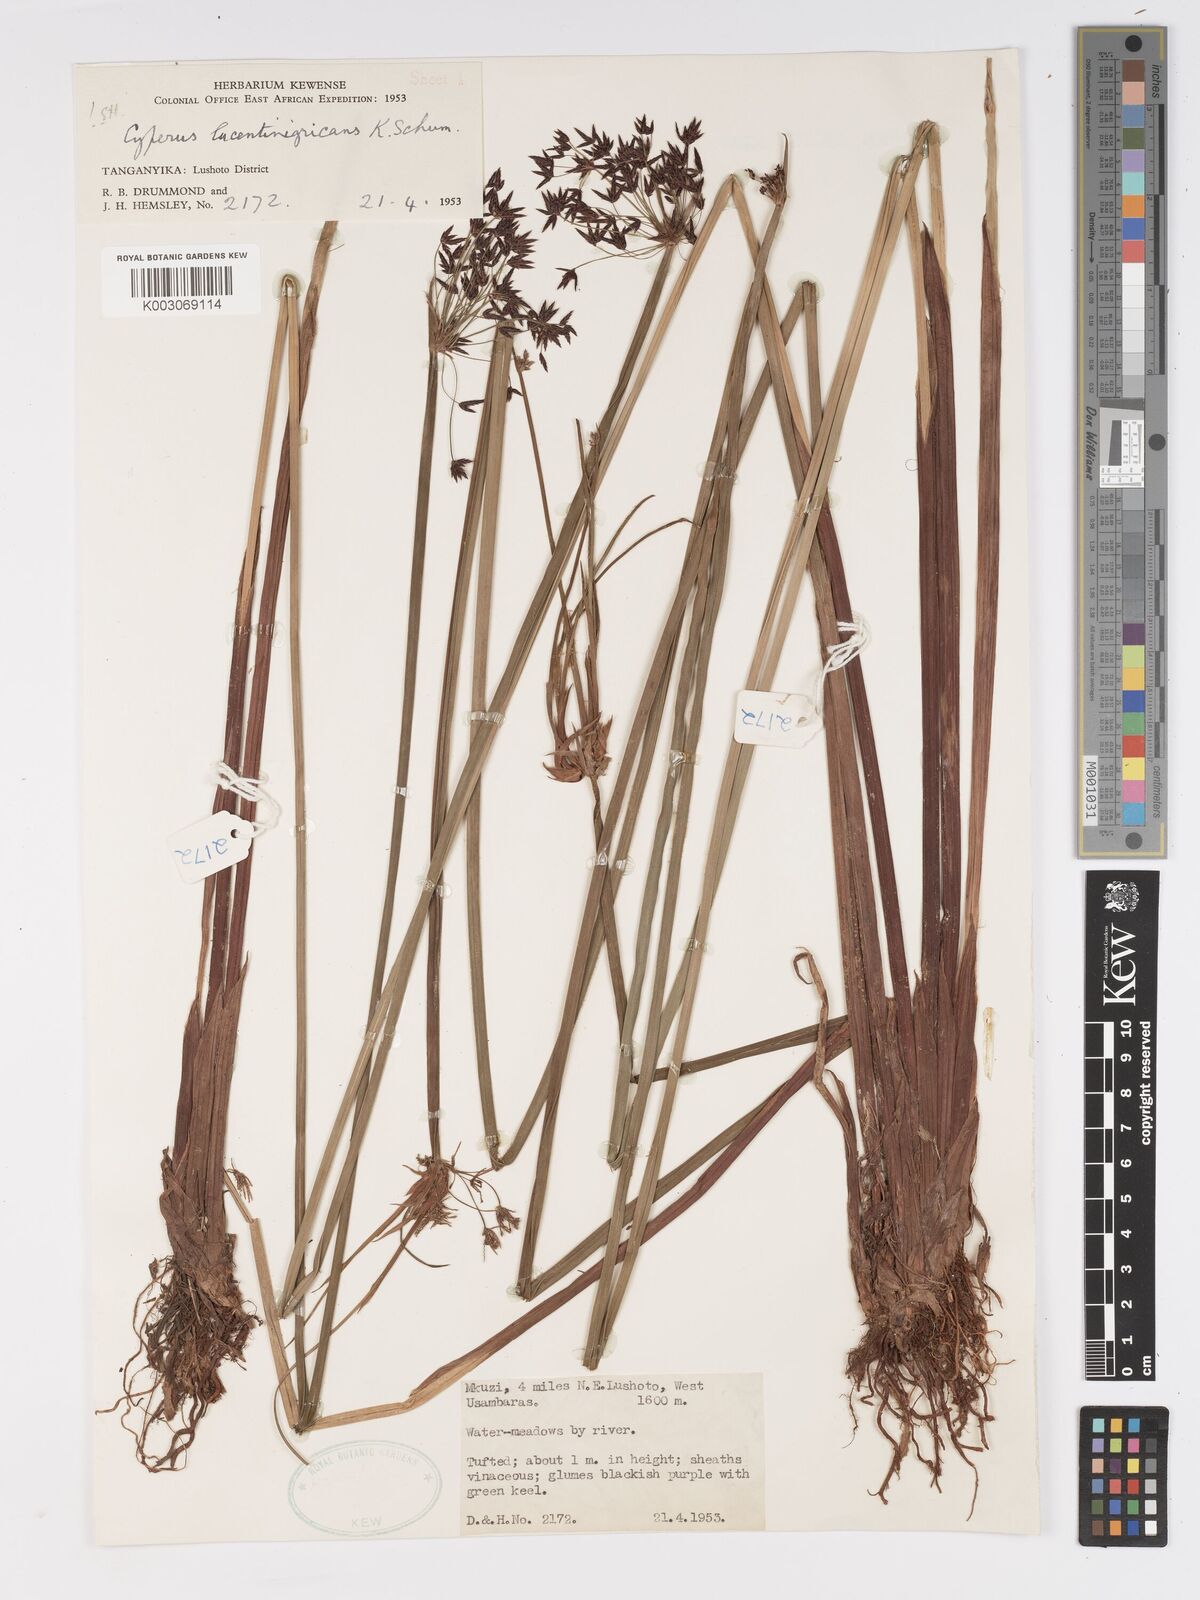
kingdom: Plantae
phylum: Tracheophyta
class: Liliopsida
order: Poales
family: Cyperaceae
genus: Cyperus
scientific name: Cyperus platycaulis
